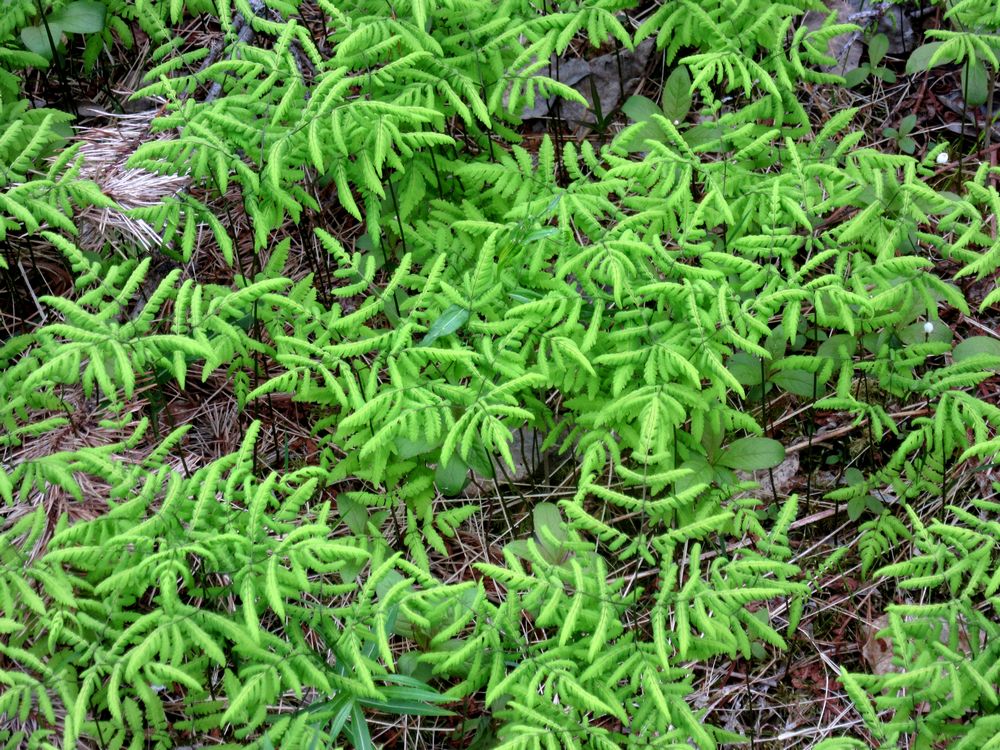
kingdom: Plantae
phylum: Tracheophyta
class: Polypodiopsida
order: Polypodiales
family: Cystopteridaceae
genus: Gymnocarpium
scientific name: Gymnocarpium dryopteris
